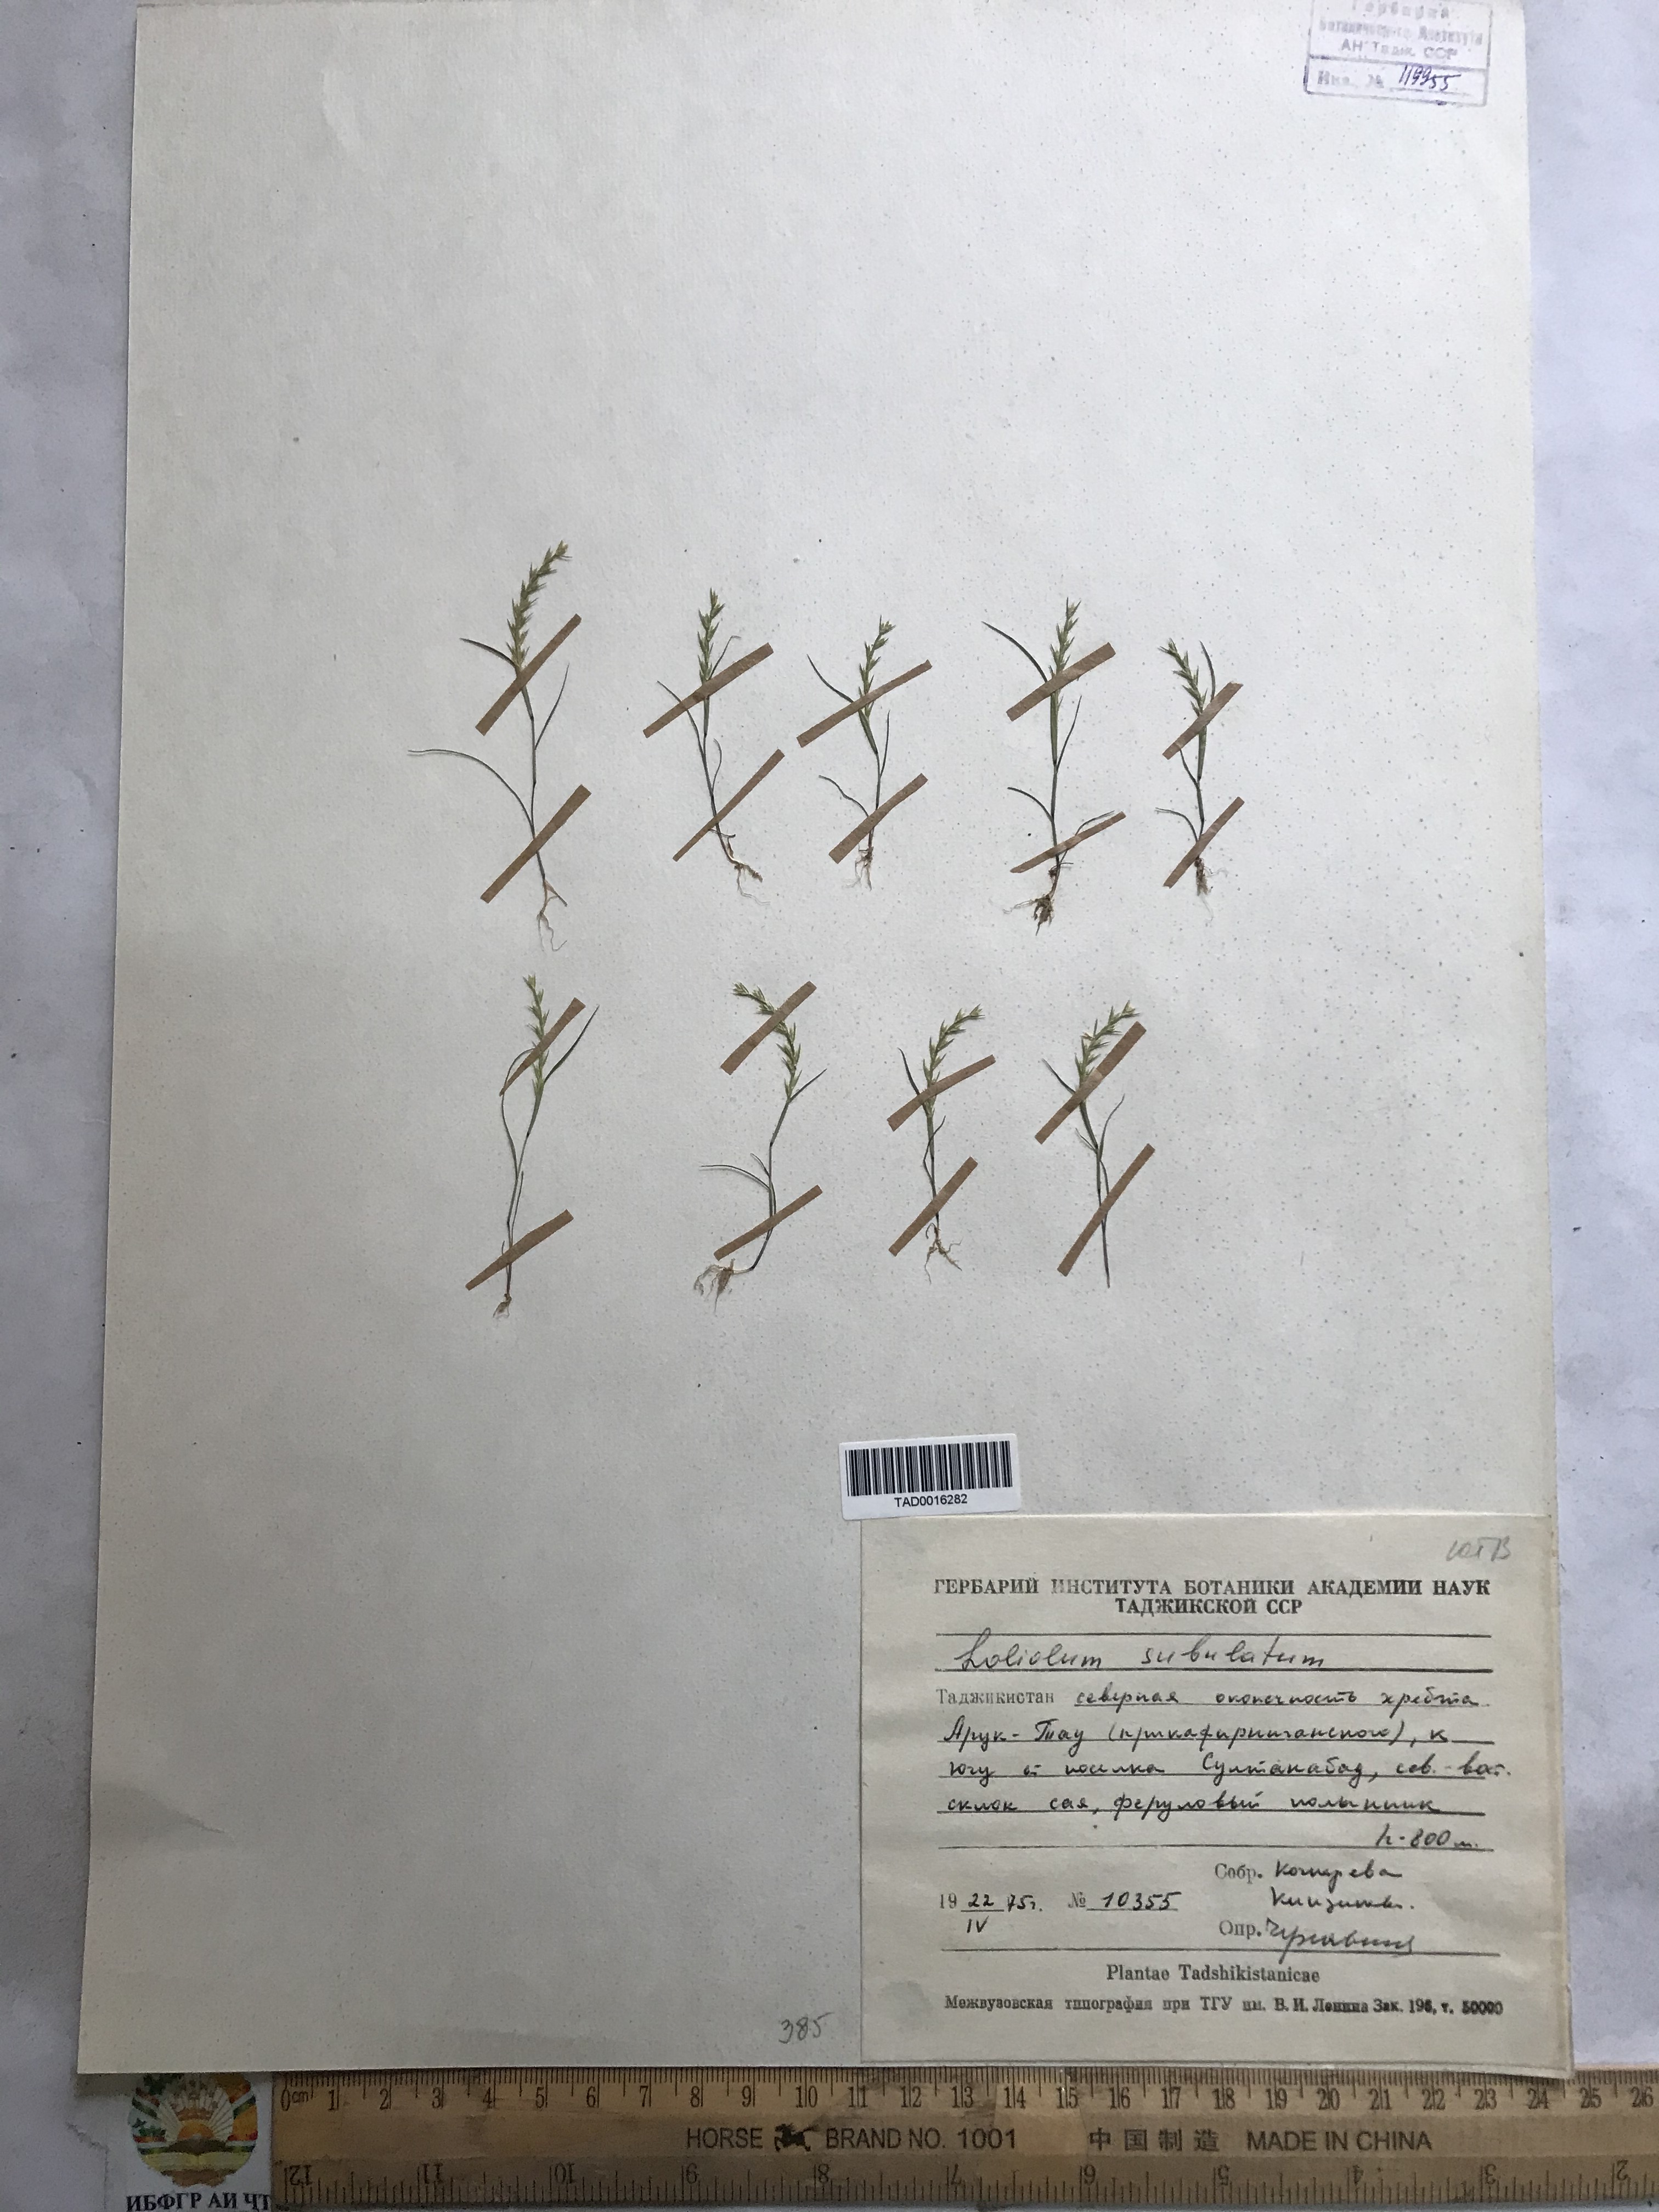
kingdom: Plantae
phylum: Tracheophyta
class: Liliopsida
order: Poales
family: Poaceae
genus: Festuca
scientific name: Festuca orientalis
